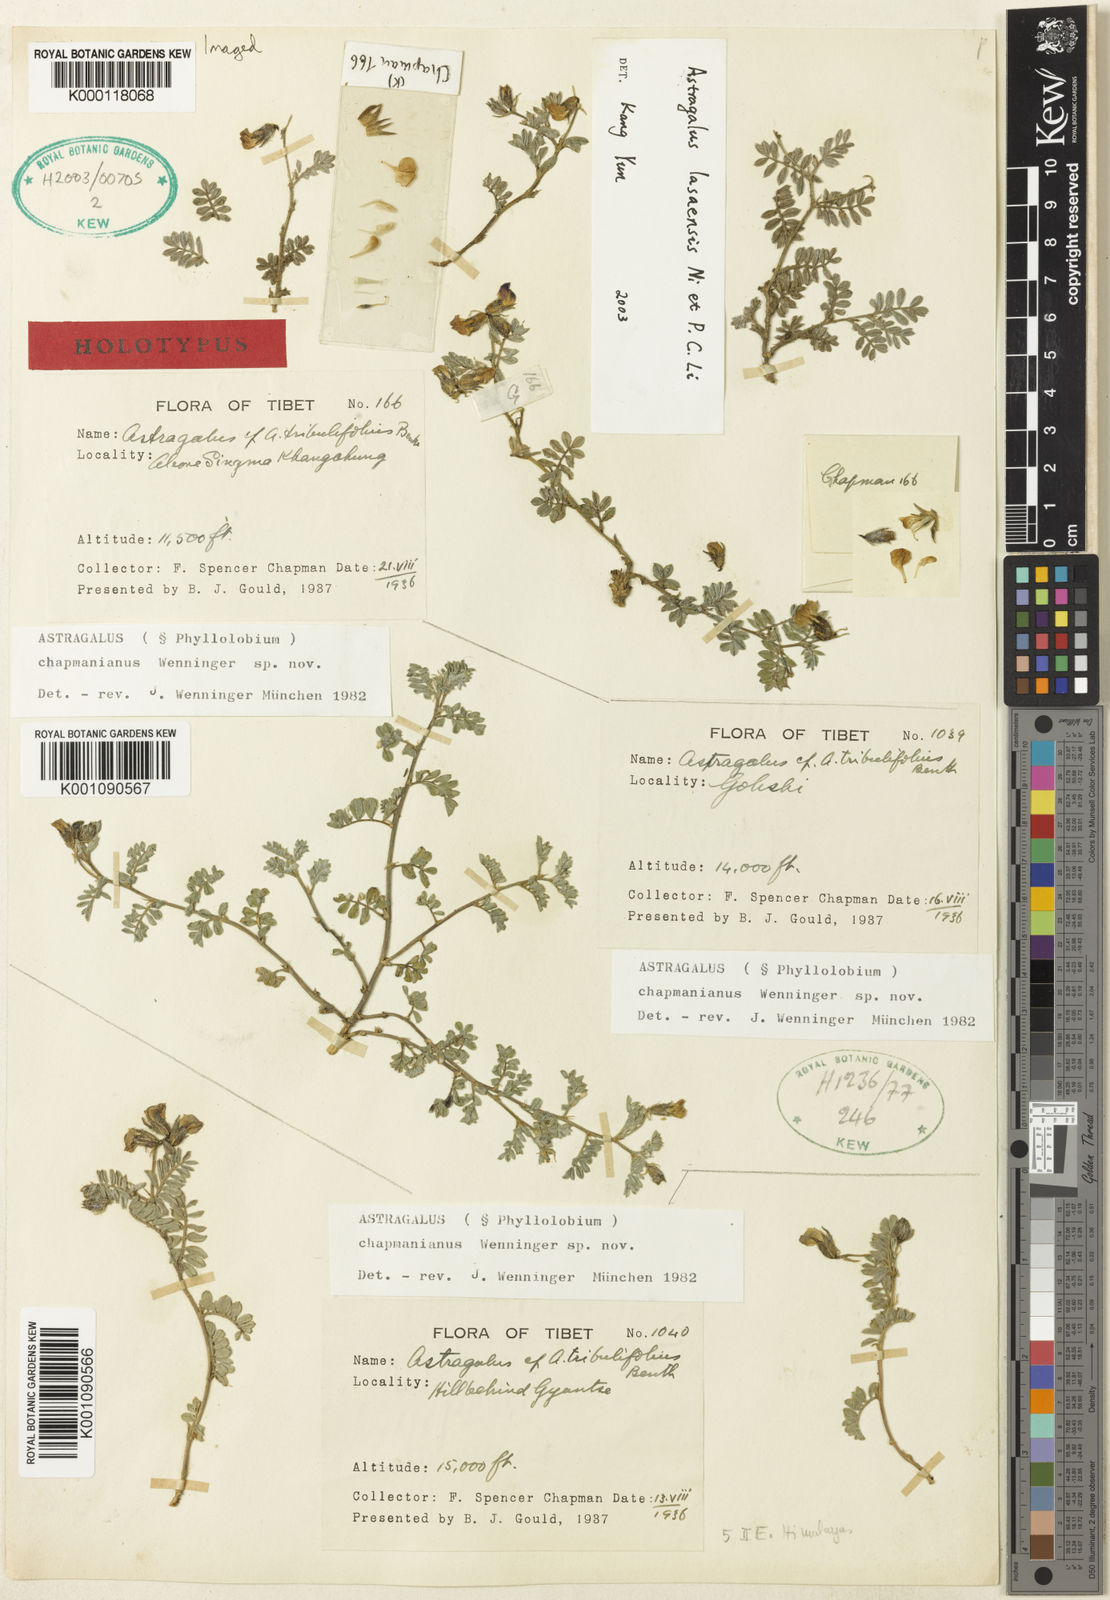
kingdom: Plantae
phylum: Tracheophyta
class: Magnoliopsida
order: Fabales
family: Fabaceae
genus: Phyllolobium
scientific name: Phyllolobium lasaense
